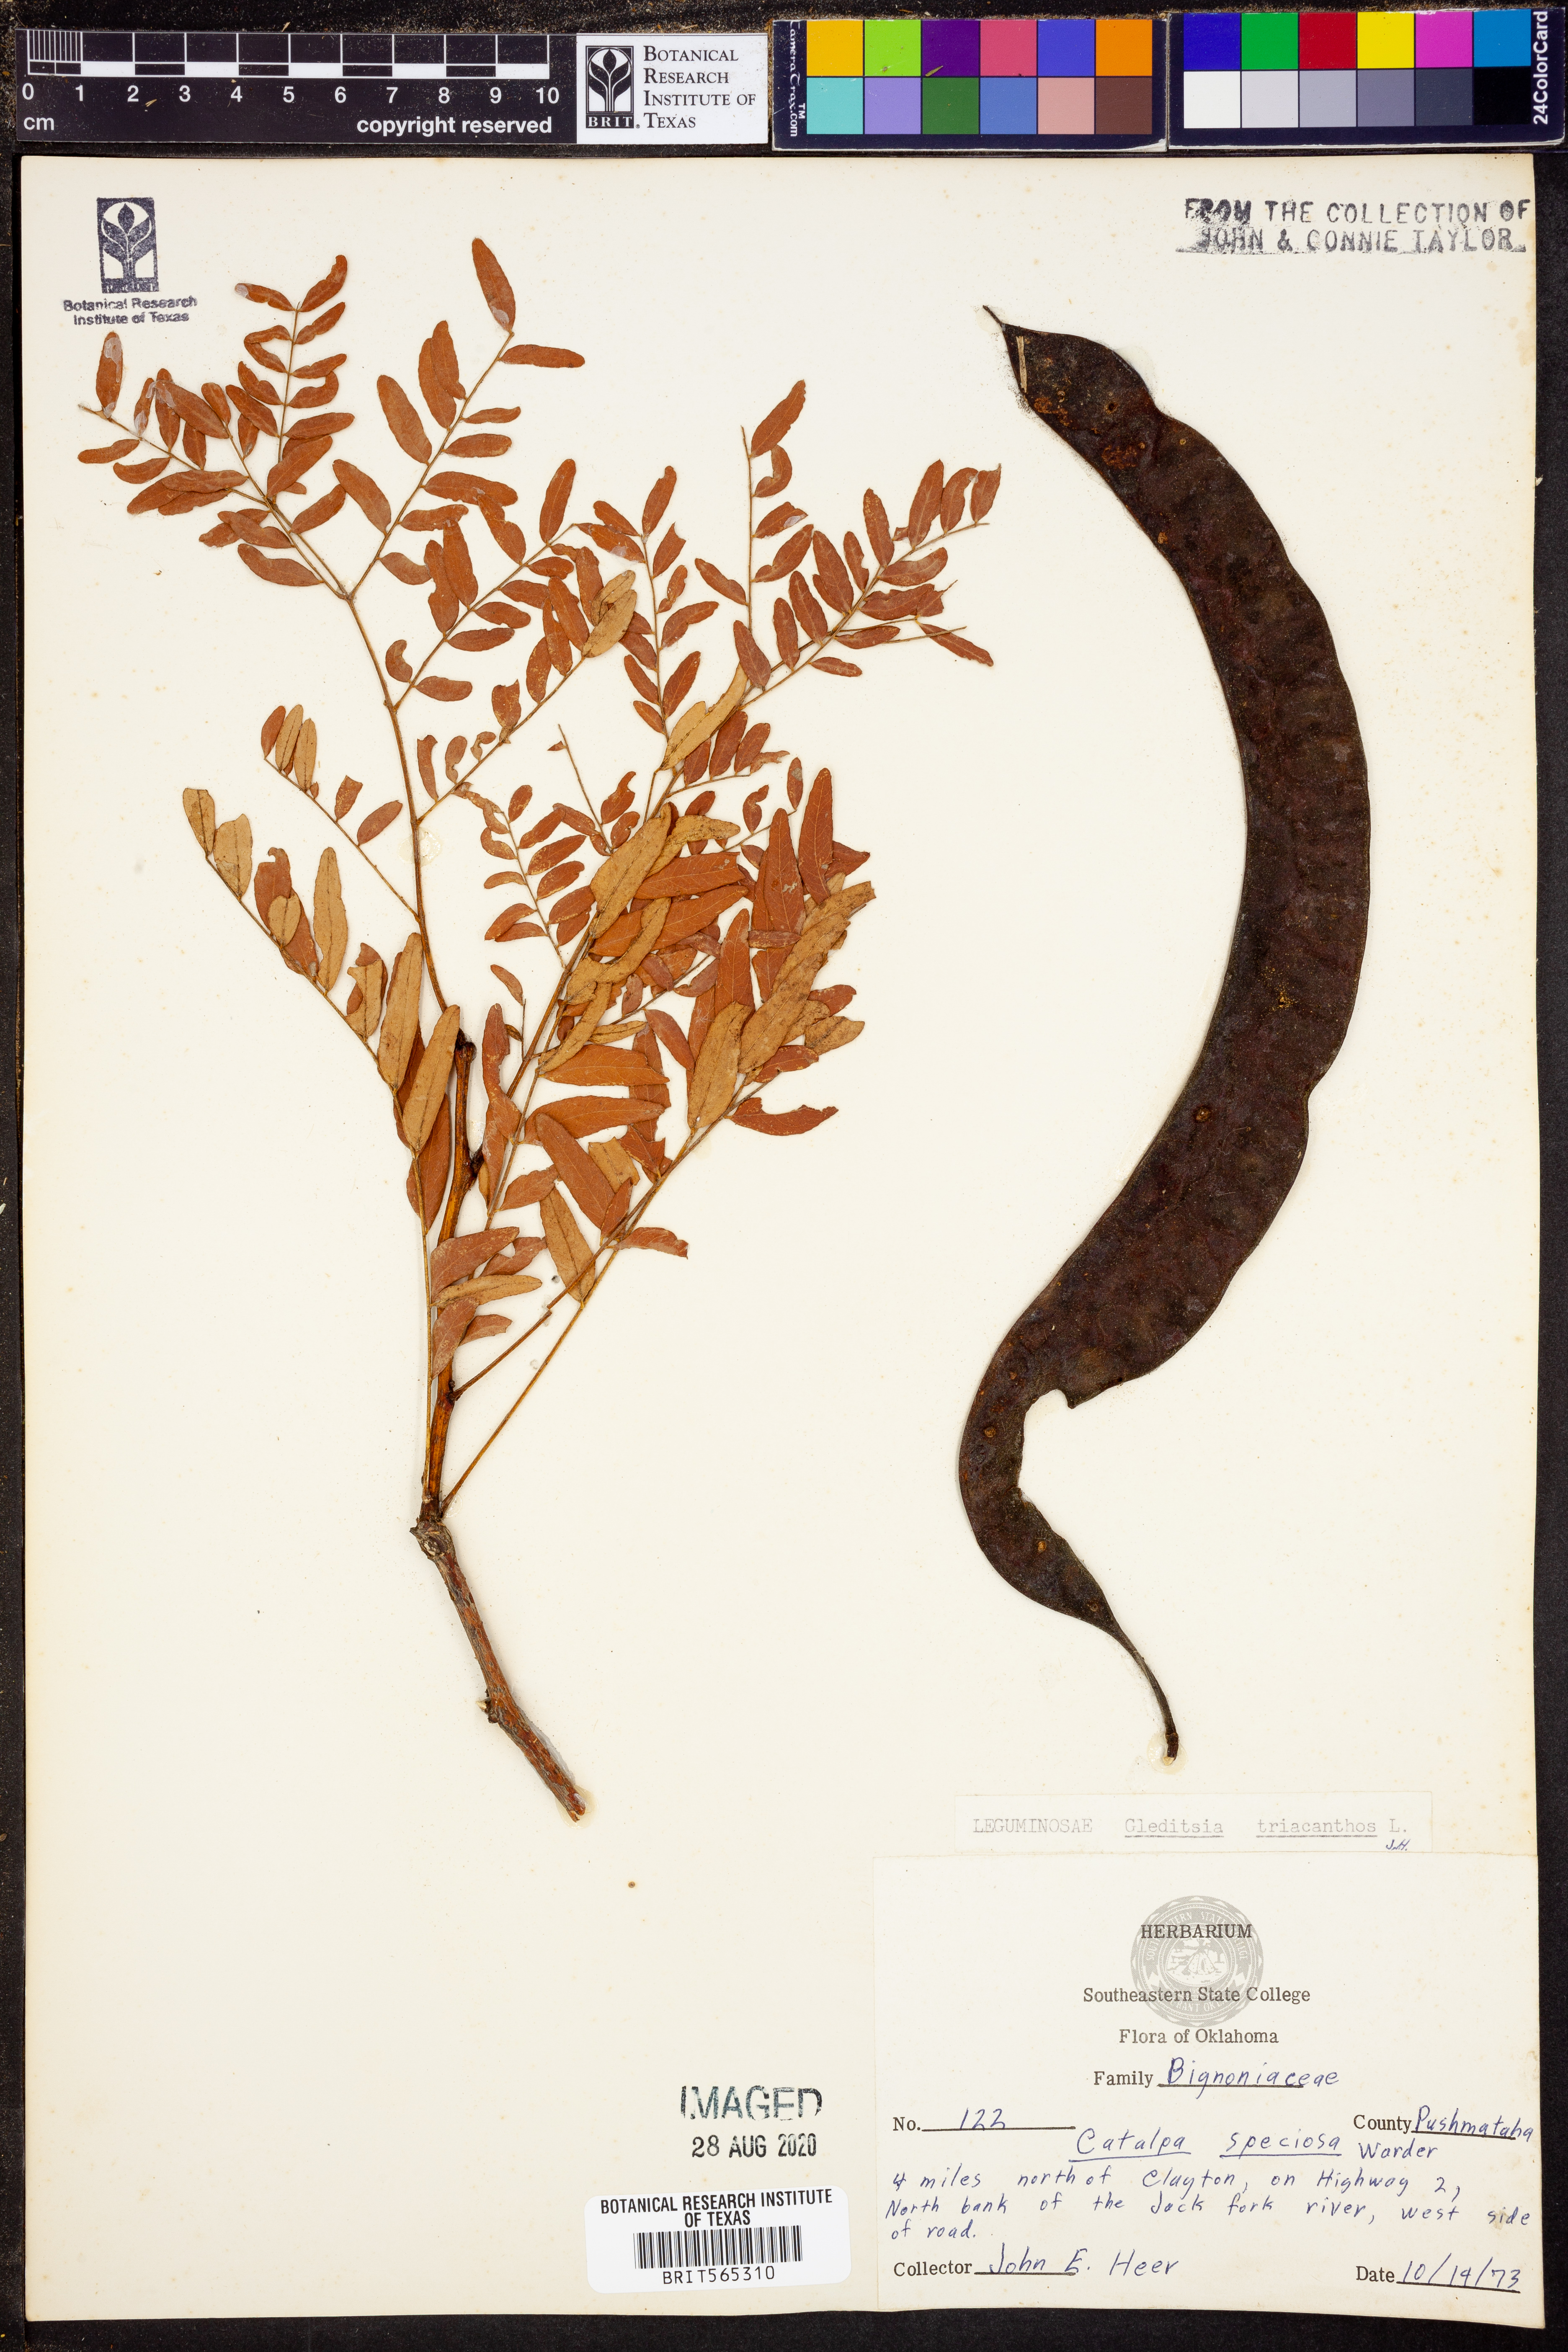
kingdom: Plantae
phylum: Tracheophyta
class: Magnoliopsida
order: Fabales
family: Fabaceae
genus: Gleditsia
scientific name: Gleditsia triacanthos
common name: Common honeylocust
